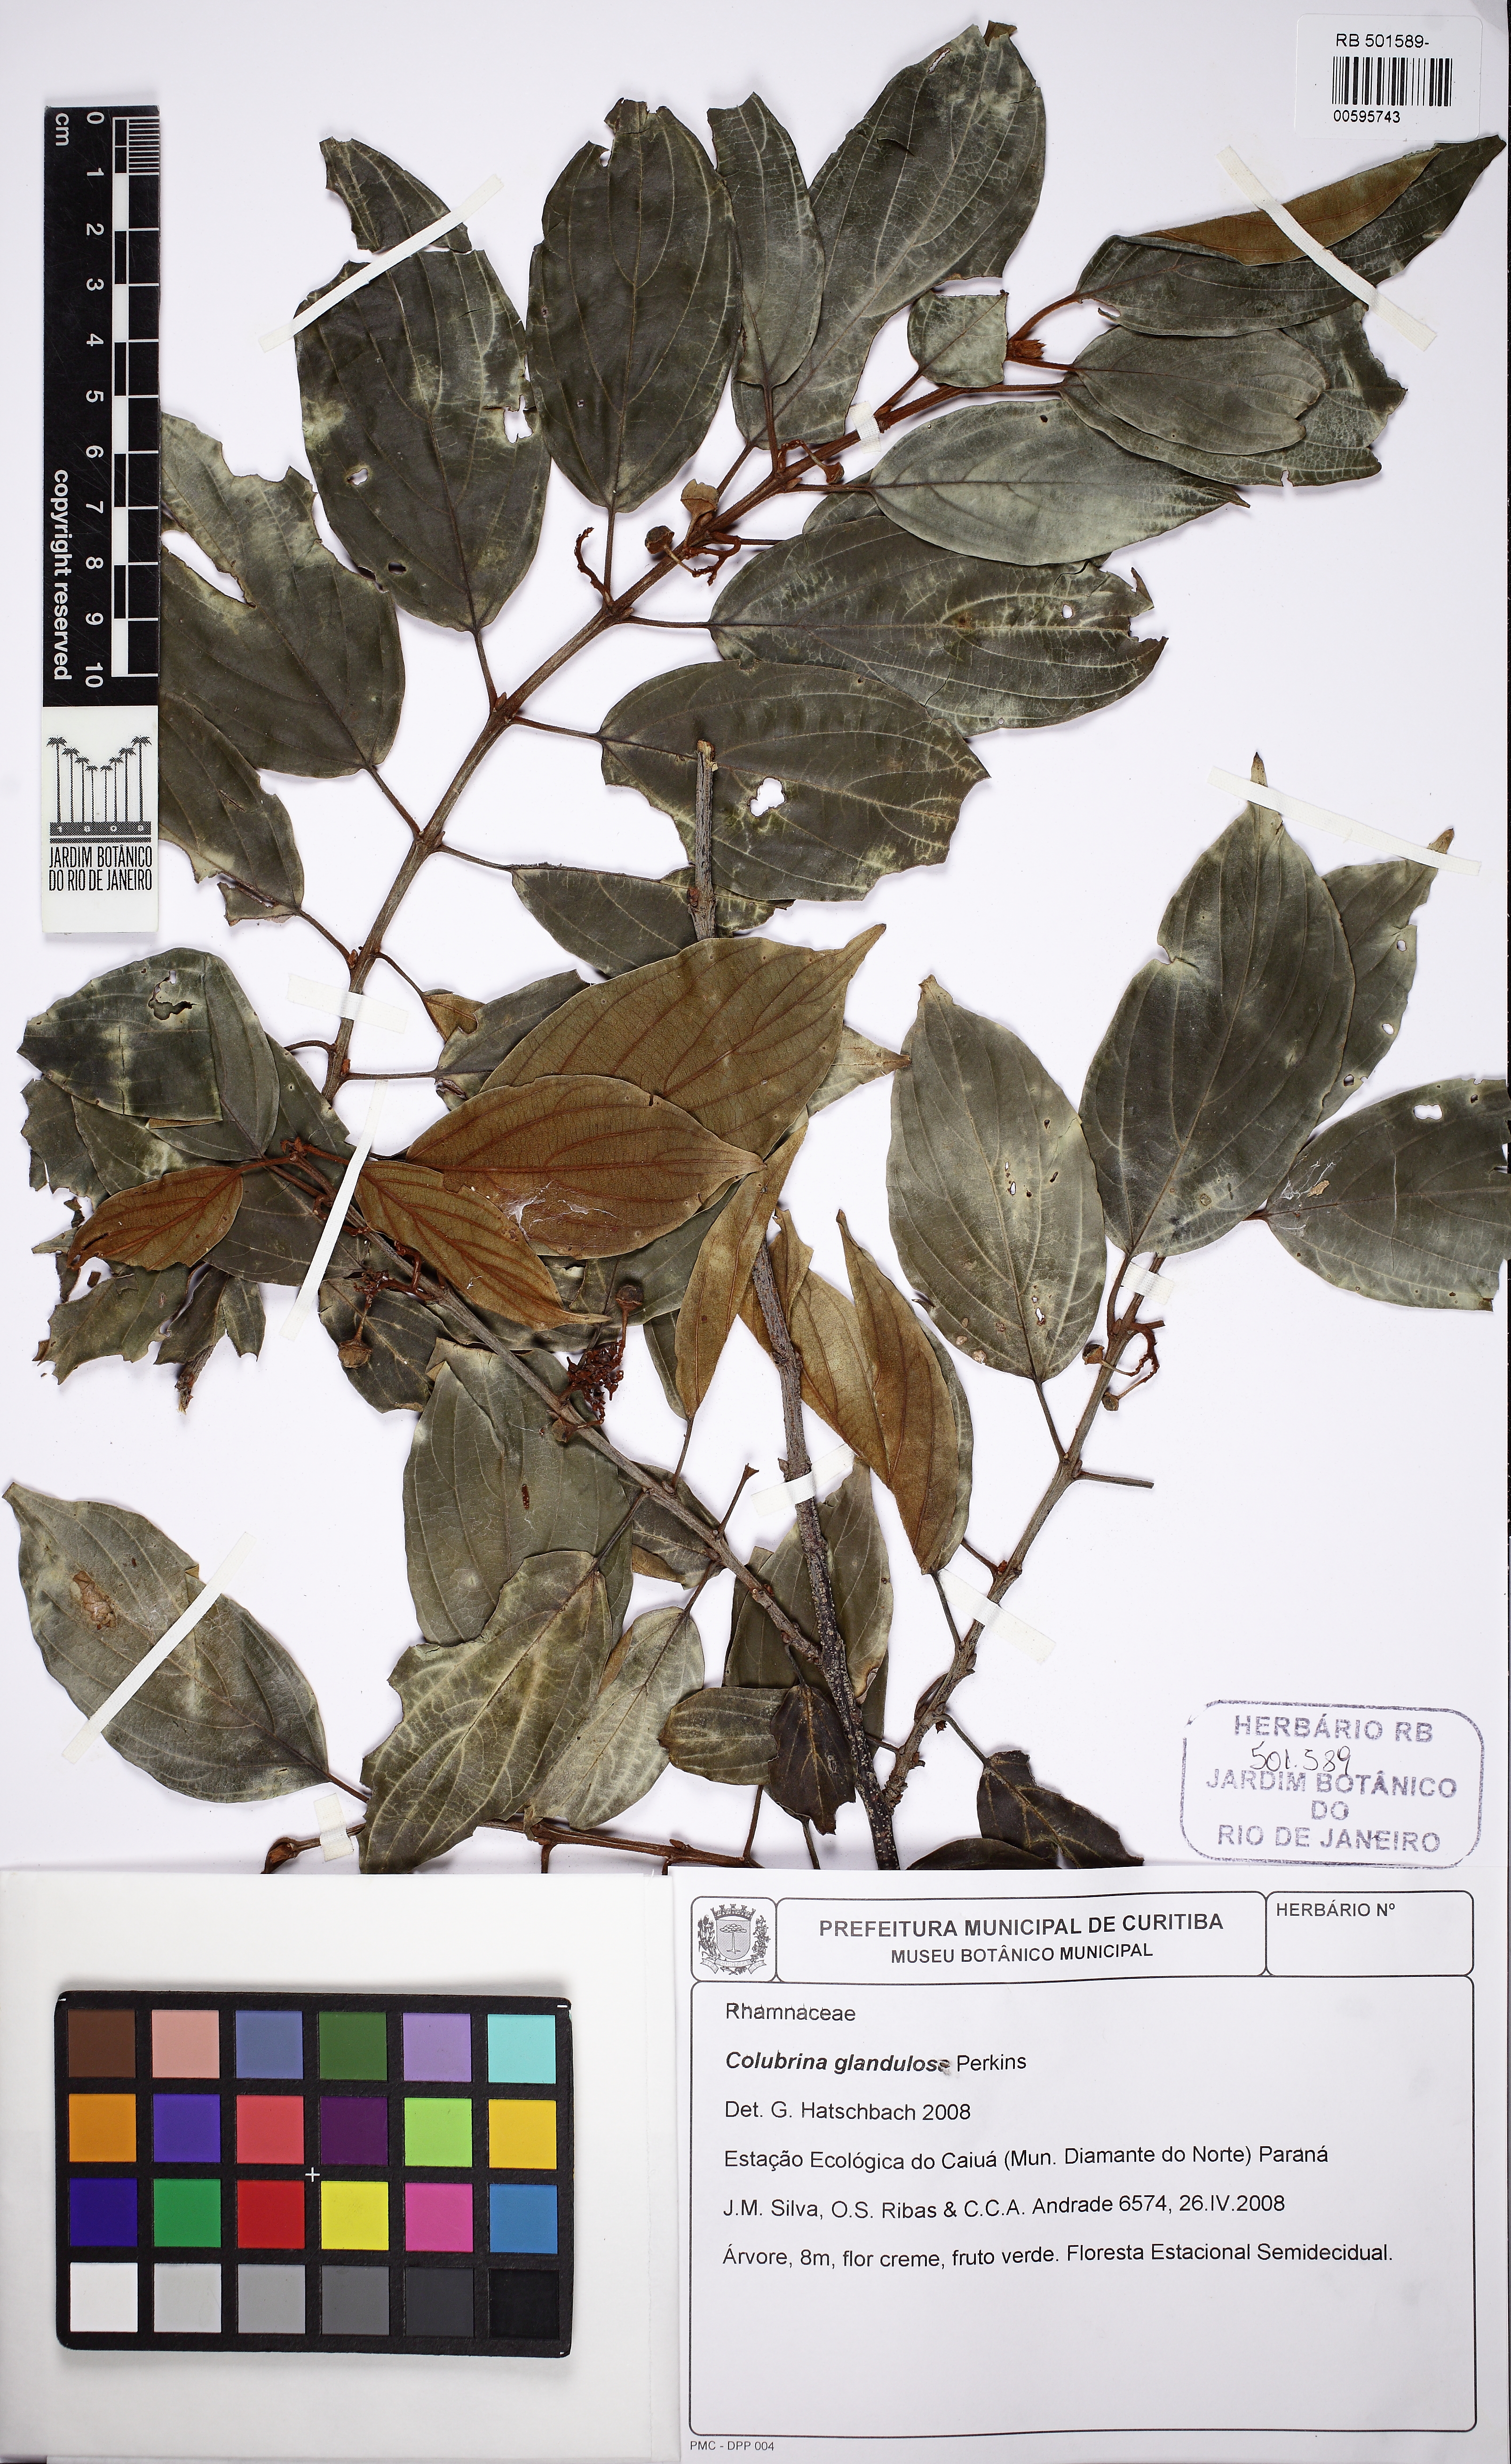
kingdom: Plantae
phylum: Tracheophyta
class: Magnoliopsida
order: Rosales
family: Rhamnaceae
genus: Colubrina
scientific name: Colubrina glandulosa
